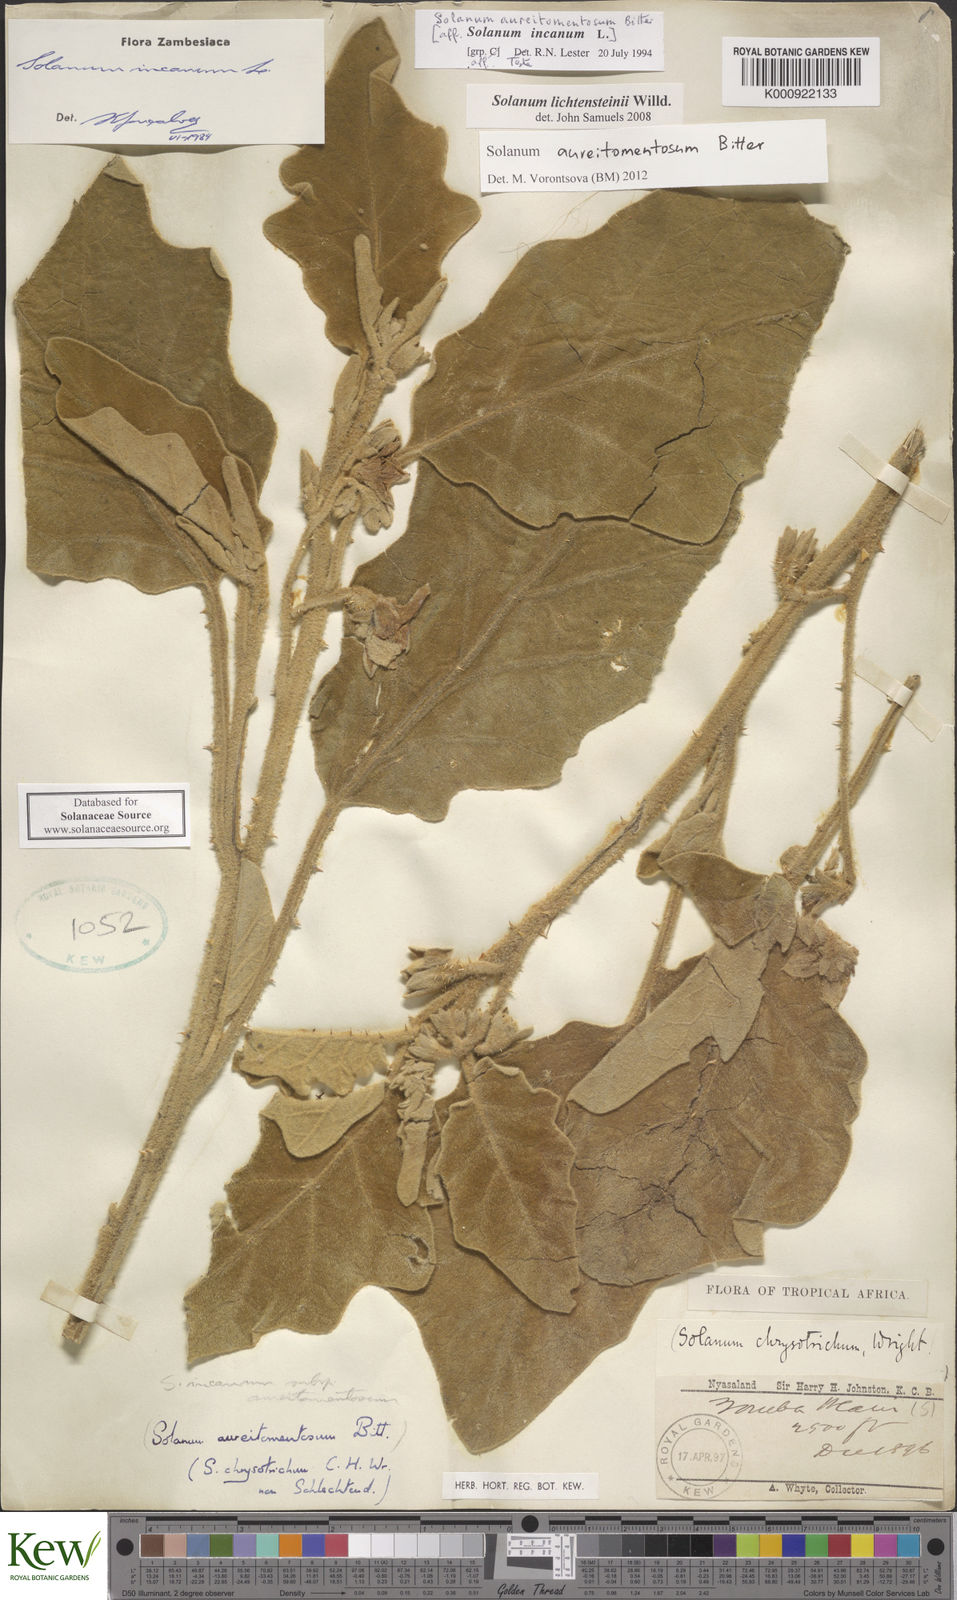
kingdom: Plantae
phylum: Tracheophyta
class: Magnoliopsida
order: Solanales
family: Solanaceae
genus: Solanum
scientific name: Solanum aureitomentosum
